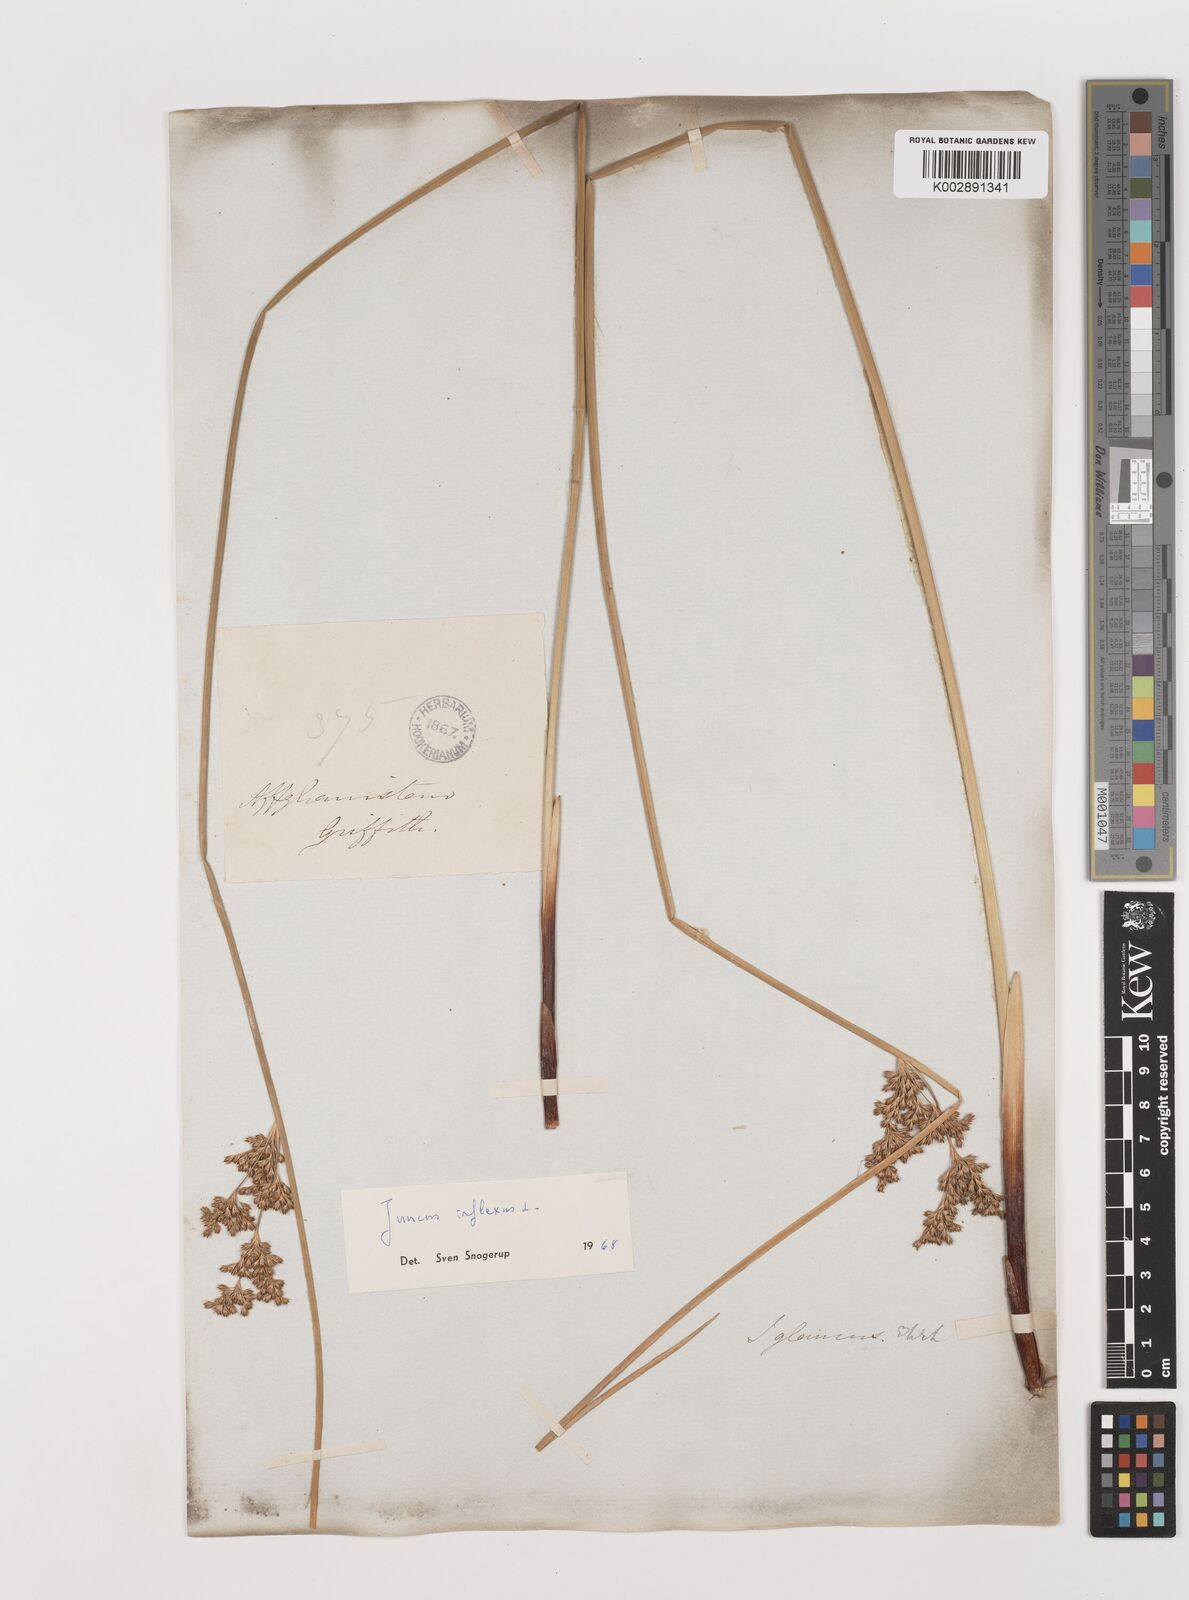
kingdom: Plantae
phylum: Tracheophyta
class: Liliopsida
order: Poales
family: Juncaceae
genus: Juncus
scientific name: Juncus inflexus
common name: Hard rush
